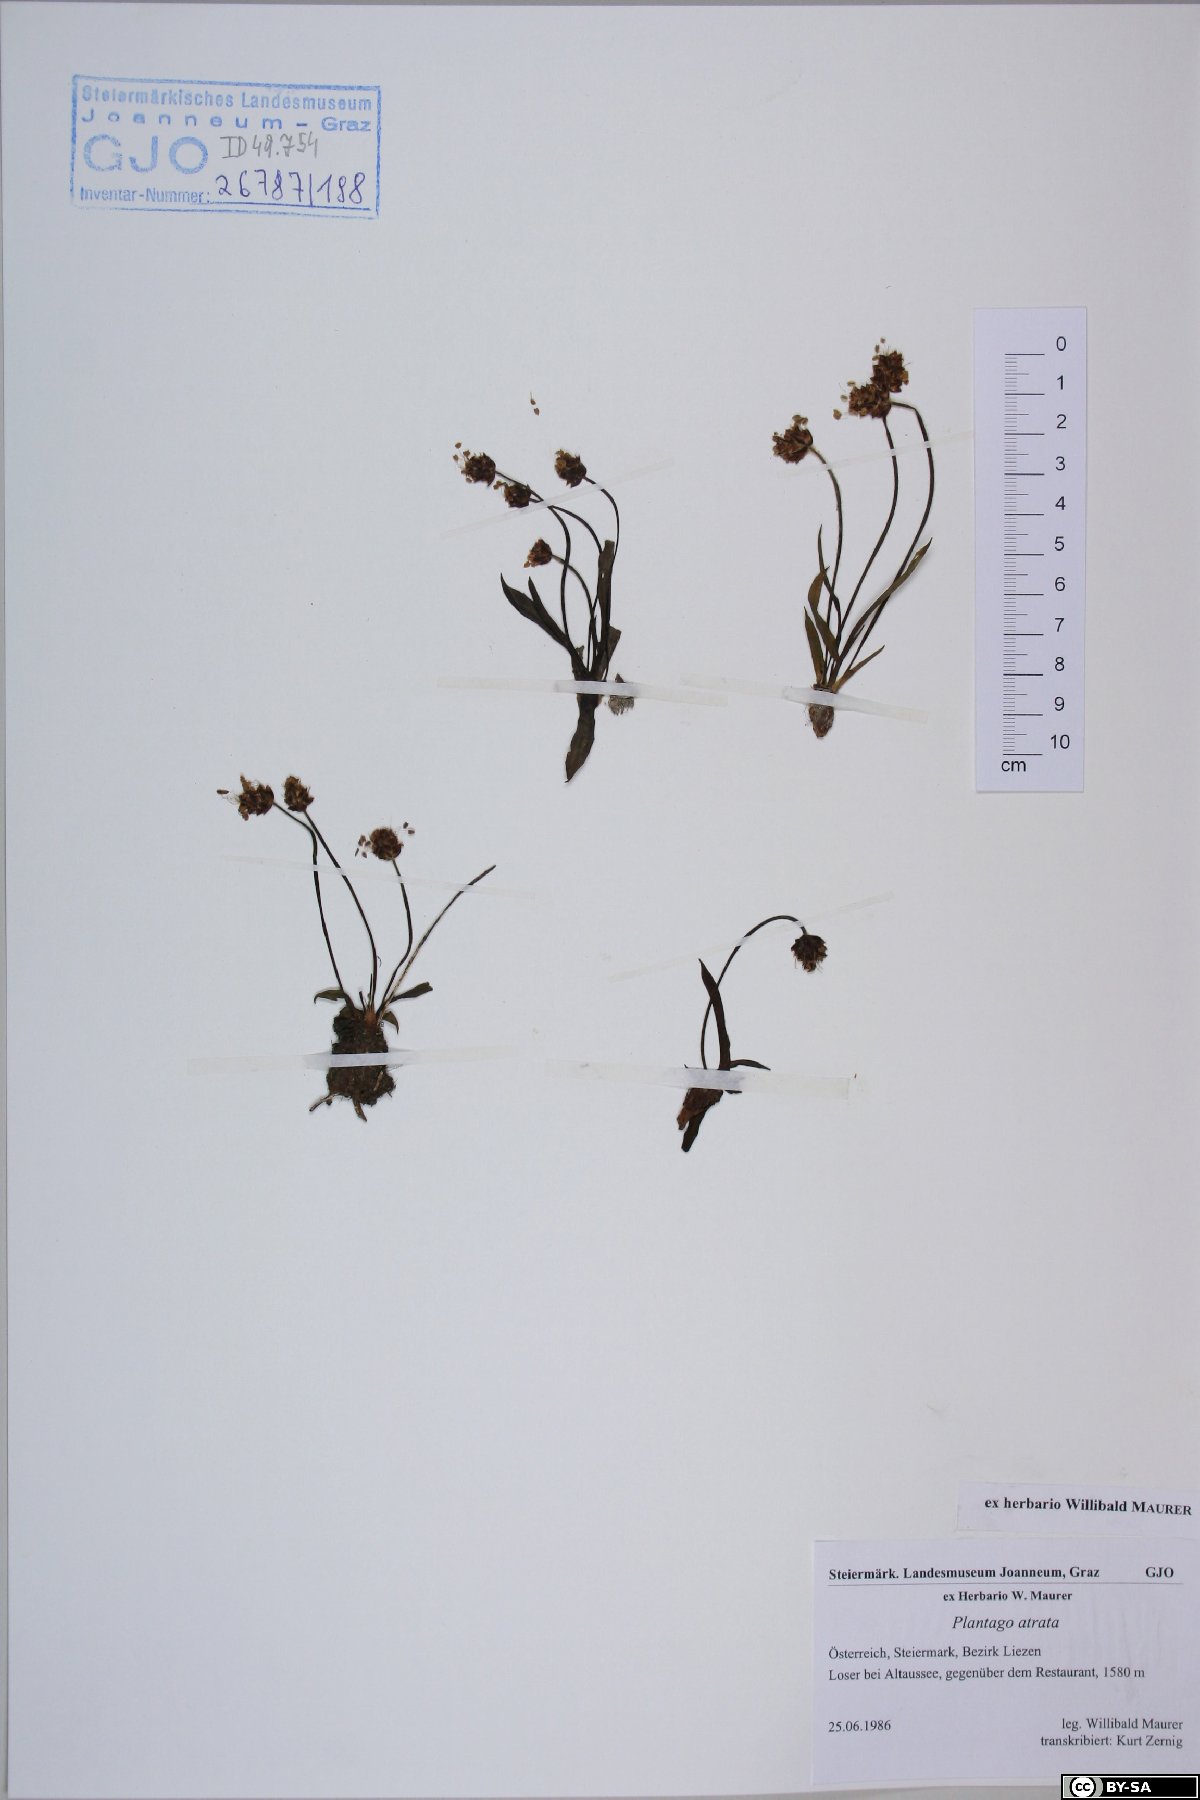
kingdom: Plantae
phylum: Tracheophyta
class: Magnoliopsida
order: Lamiales
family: Plantaginaceae
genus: Plantago
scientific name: Plantago atrata
